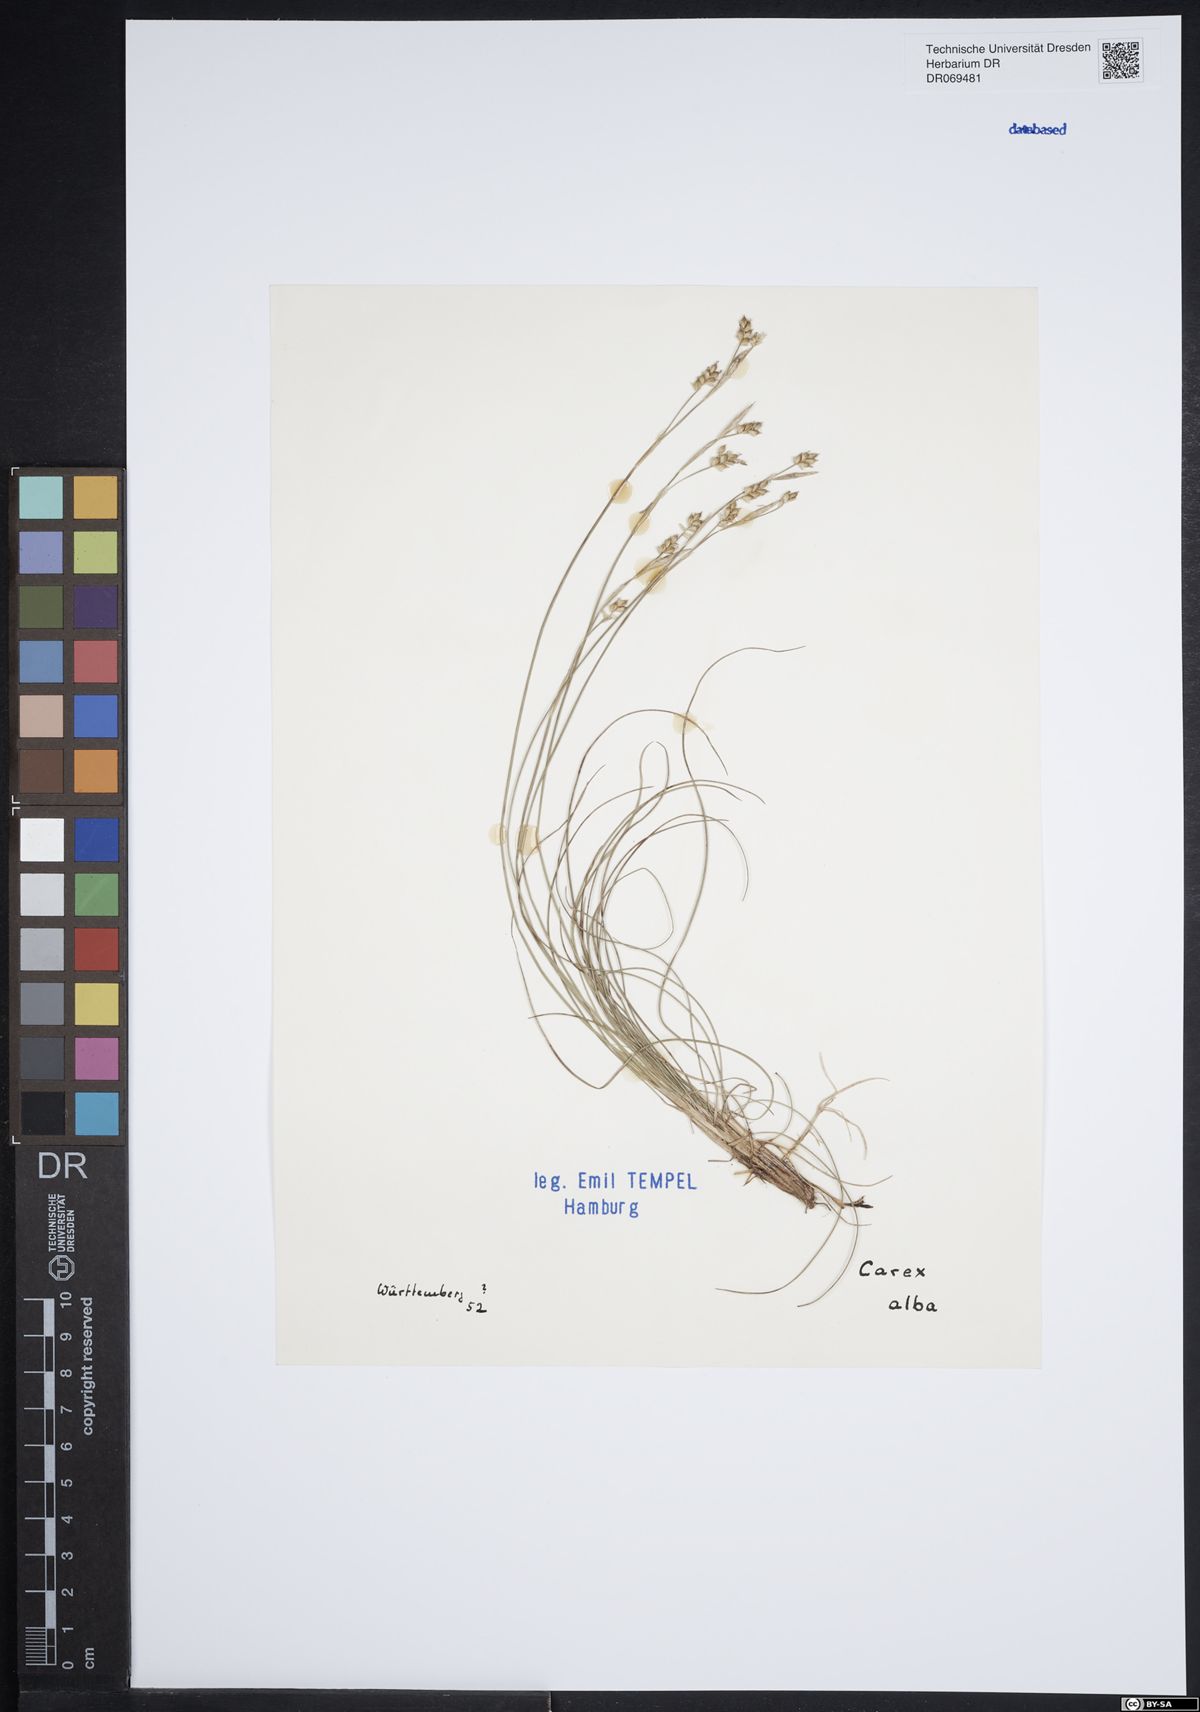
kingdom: Plantae
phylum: Tracheophyta
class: Liliopsida
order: Poales
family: Cyperaceae
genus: Carex
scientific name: Carex alba
